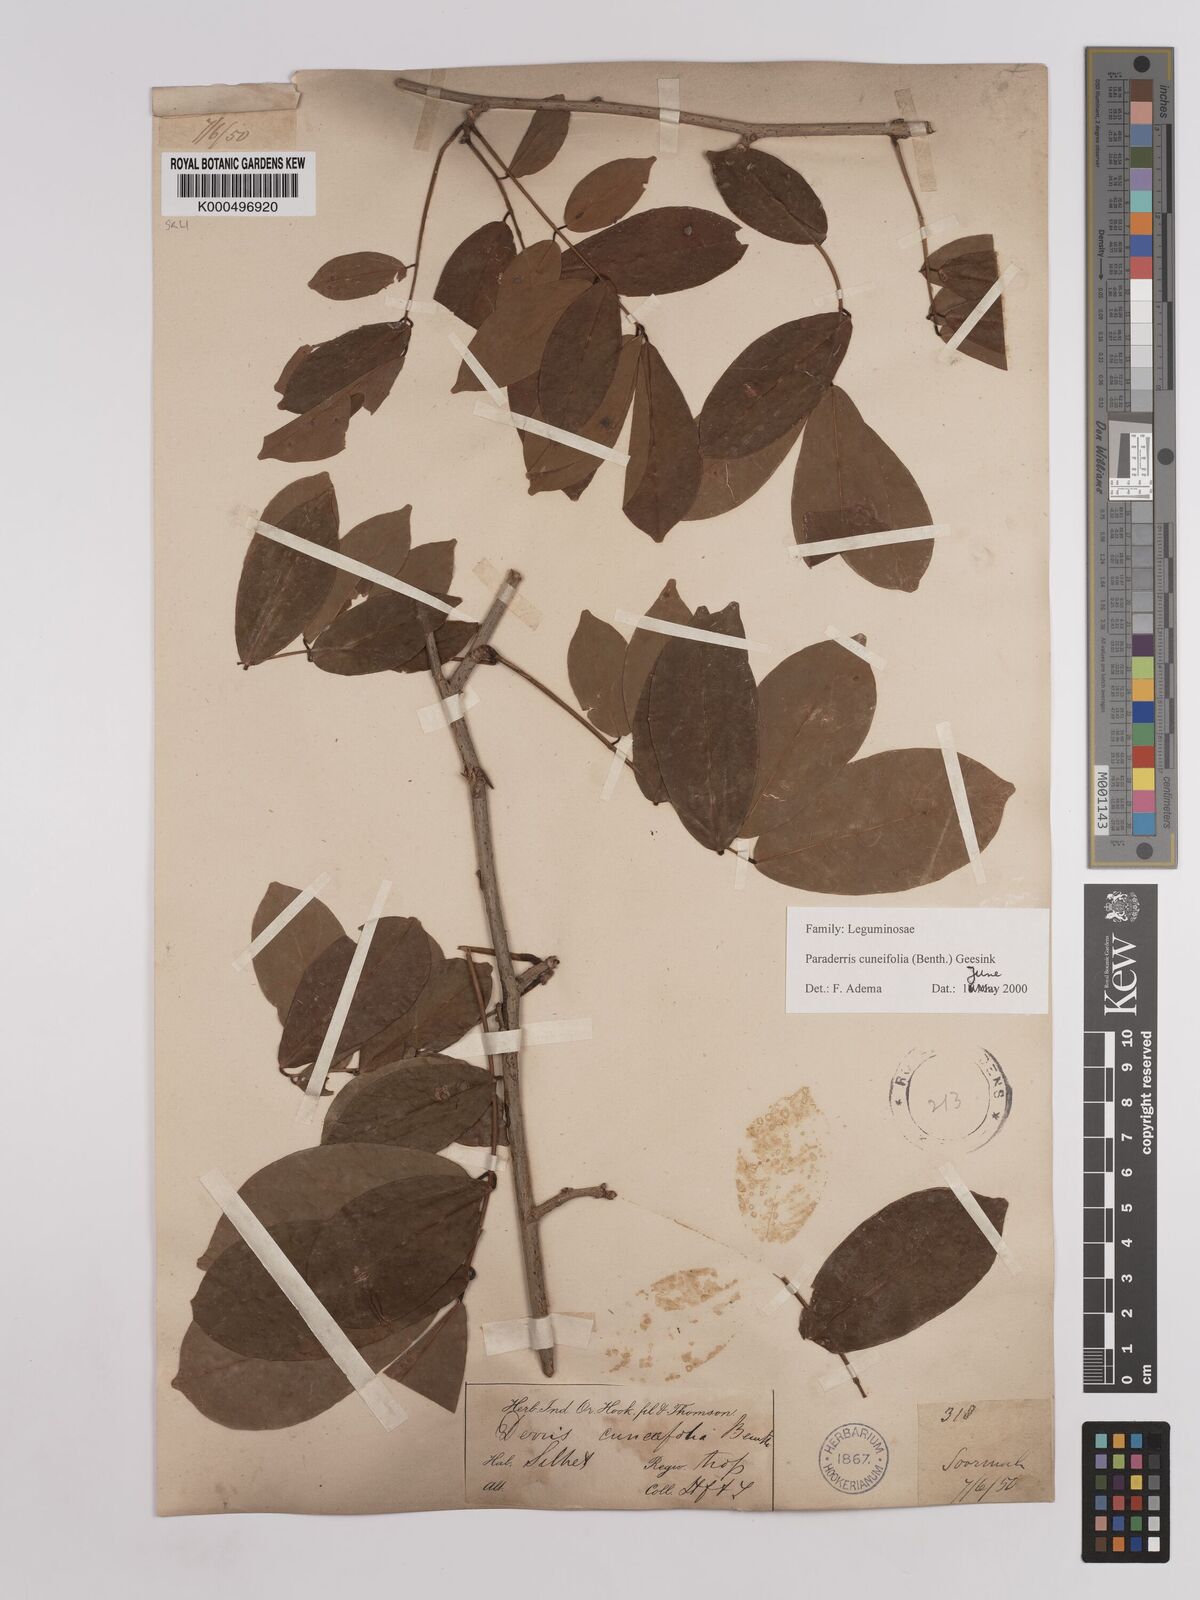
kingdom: Plantae
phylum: Tracheophyta
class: Magnoliopsida
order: Fabales
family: Fabaceae
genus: Derris
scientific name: Derris cuneifolia
